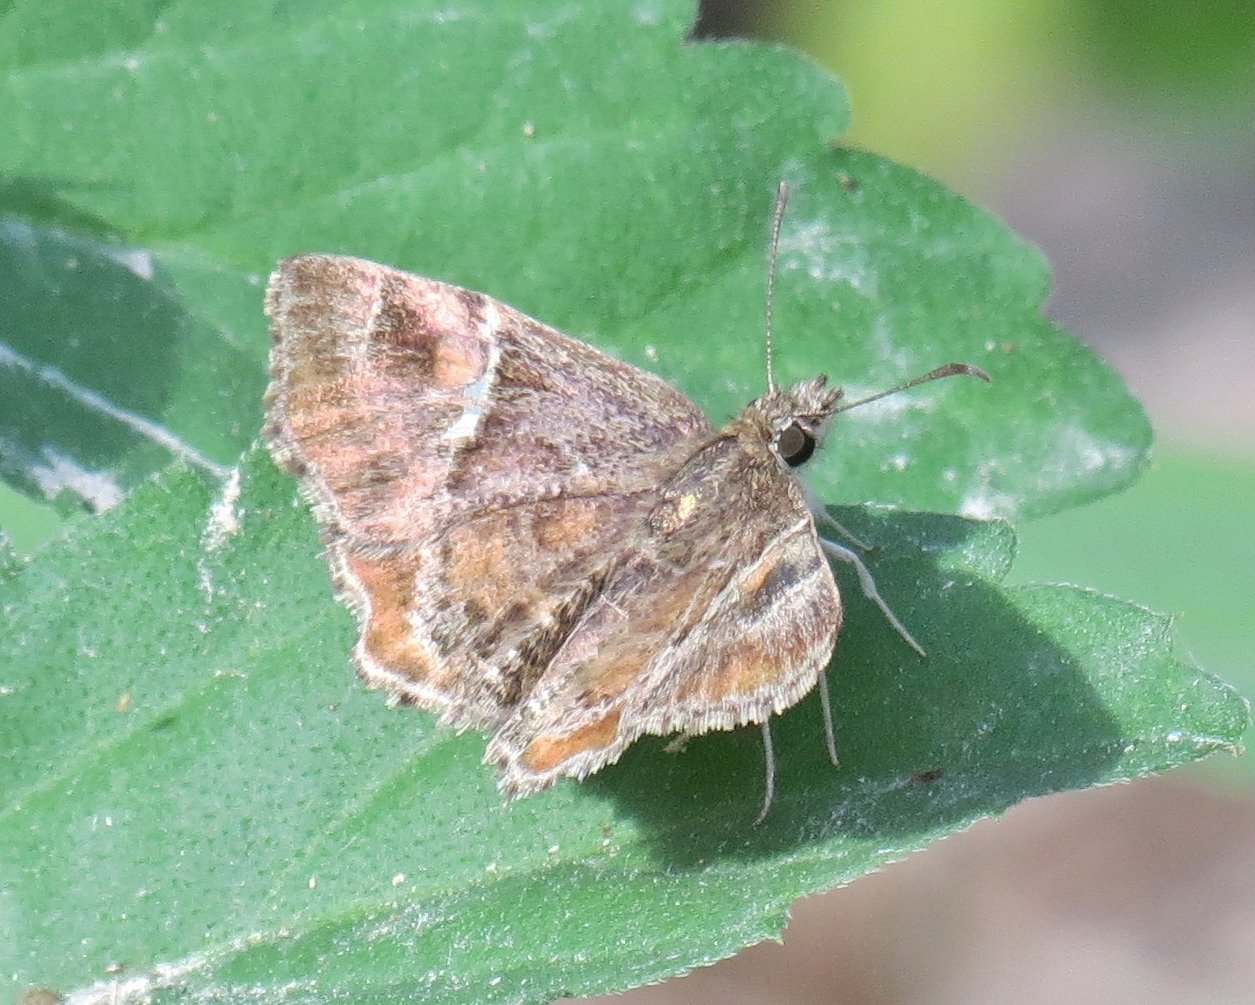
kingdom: Animalia
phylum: Arthropoda
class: Insecta
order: Lepidoptera
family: Hesperiidae
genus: Systasea
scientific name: Systasea pulverulenta
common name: Texas Powdered-Skipper
